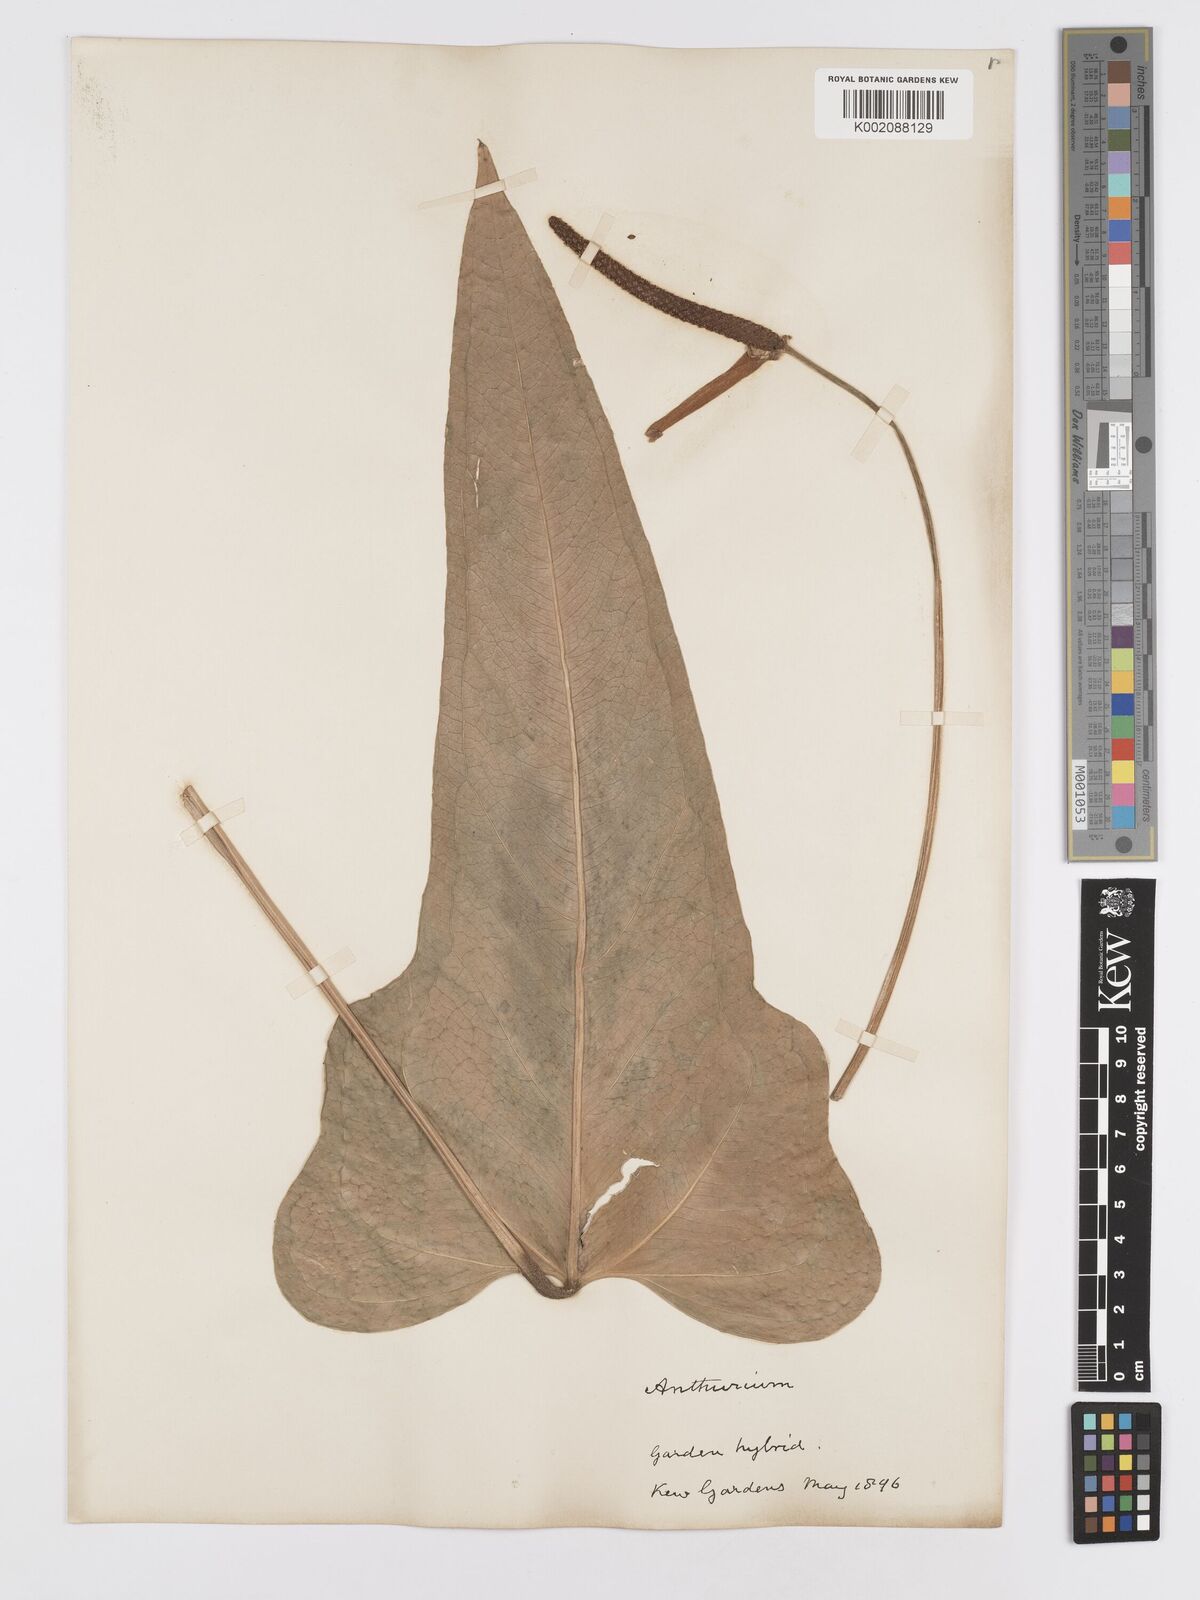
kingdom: Plantae
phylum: Tracheophyta
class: Liliopsida
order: Alismatales
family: Araceae
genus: Anthurium
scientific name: Anthurium
